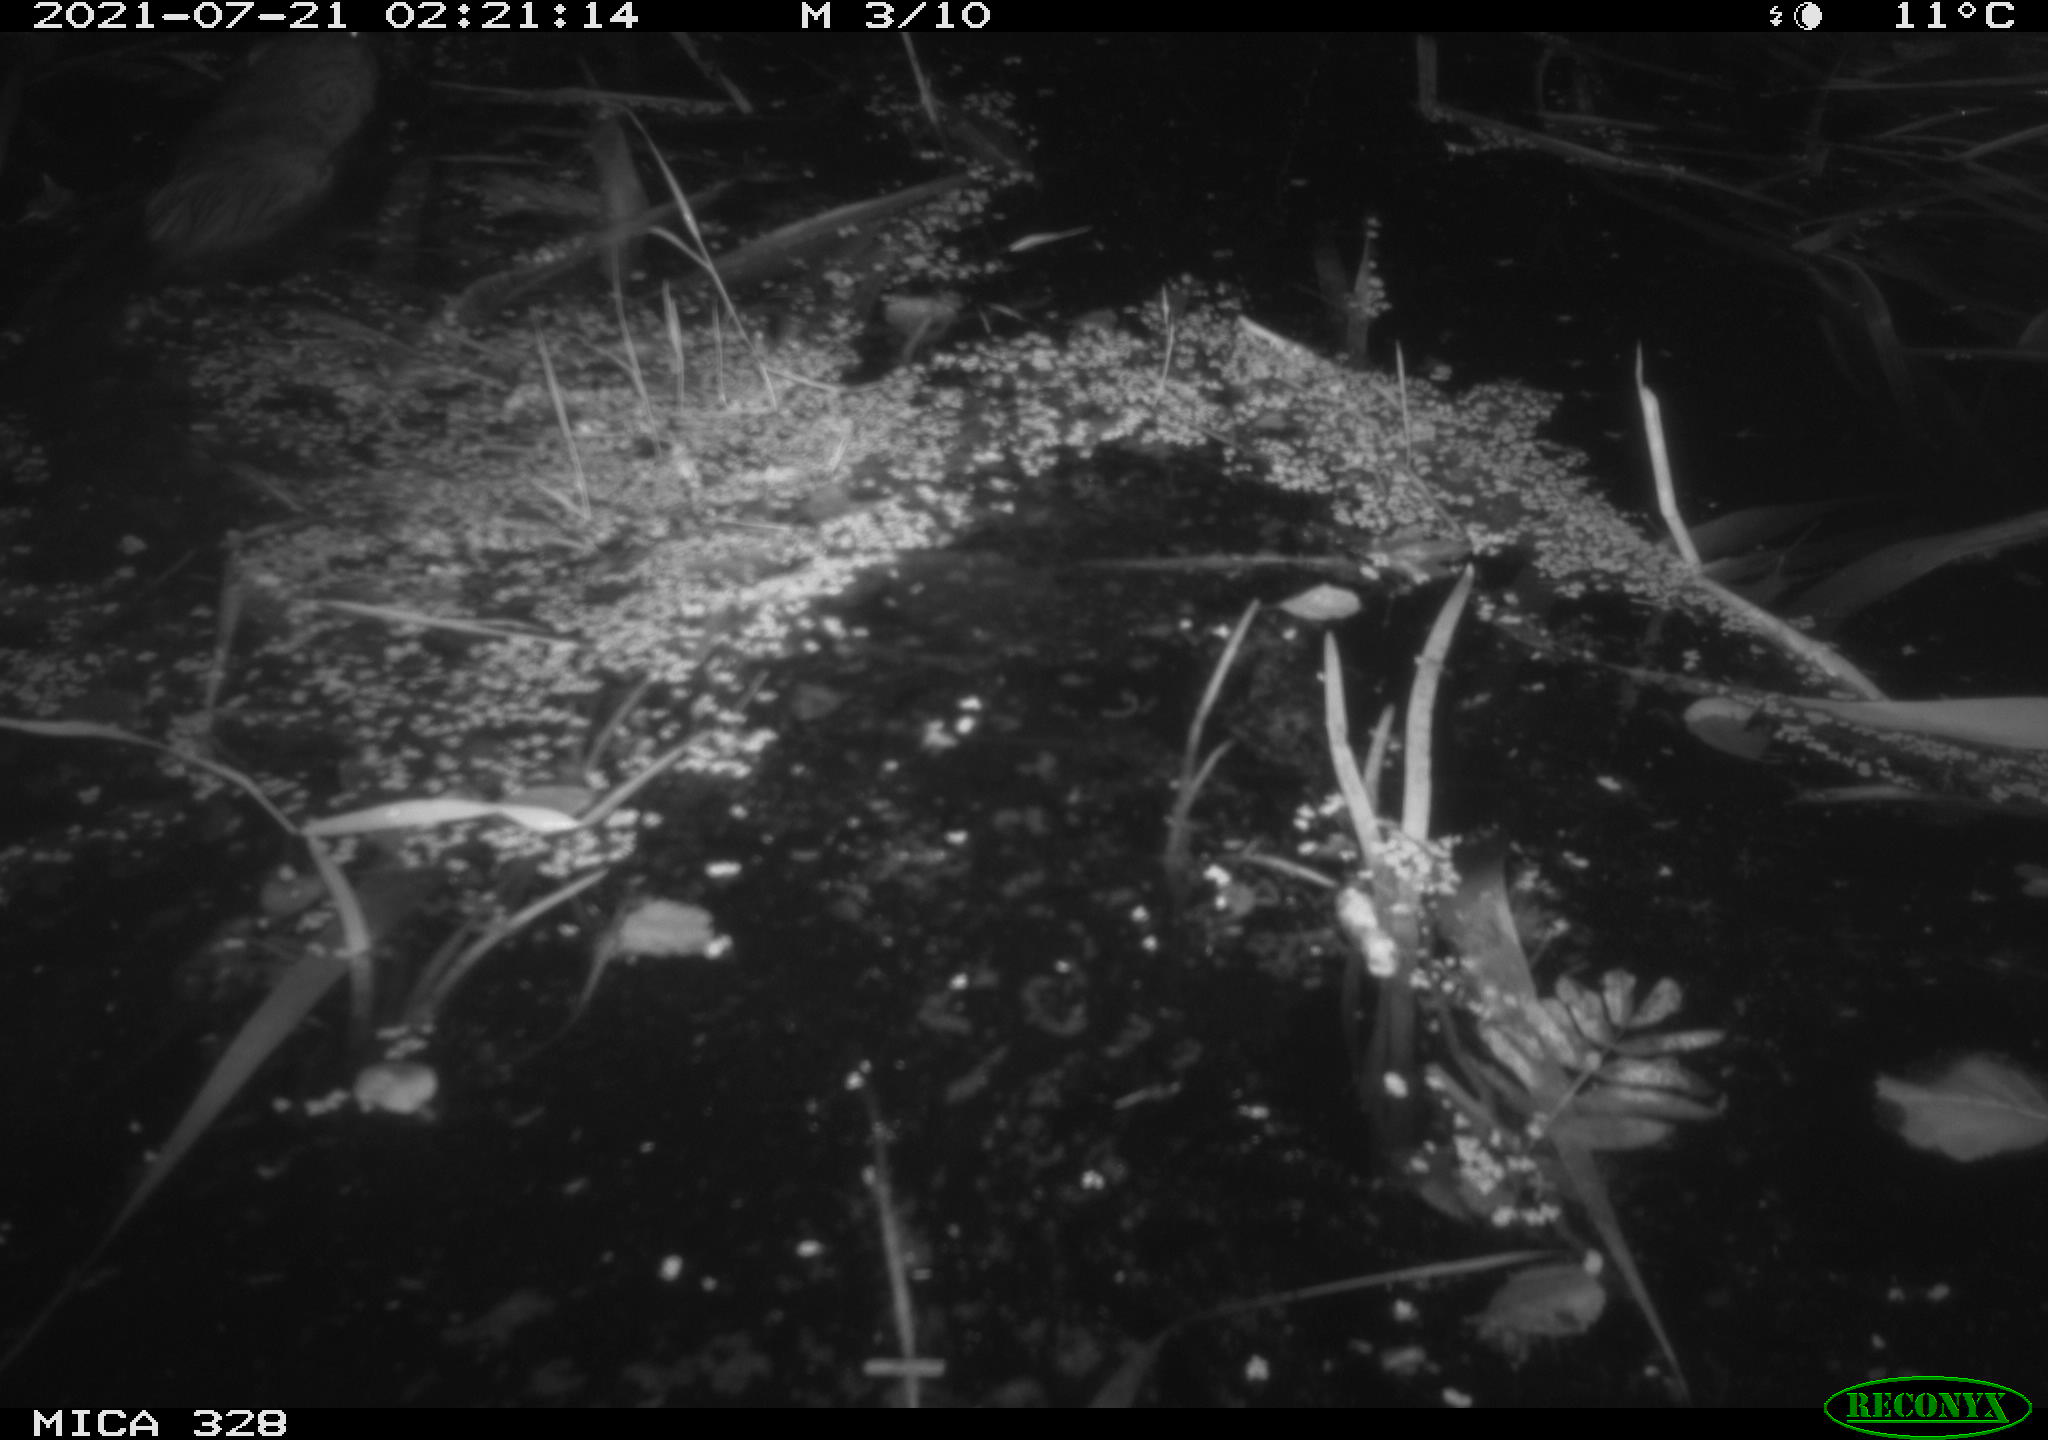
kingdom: Animalia
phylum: Chordata
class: Mammalia
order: Rodentia
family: Cricetidae
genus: Ondatra
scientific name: Ondatra zibethicus
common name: Muskrat
